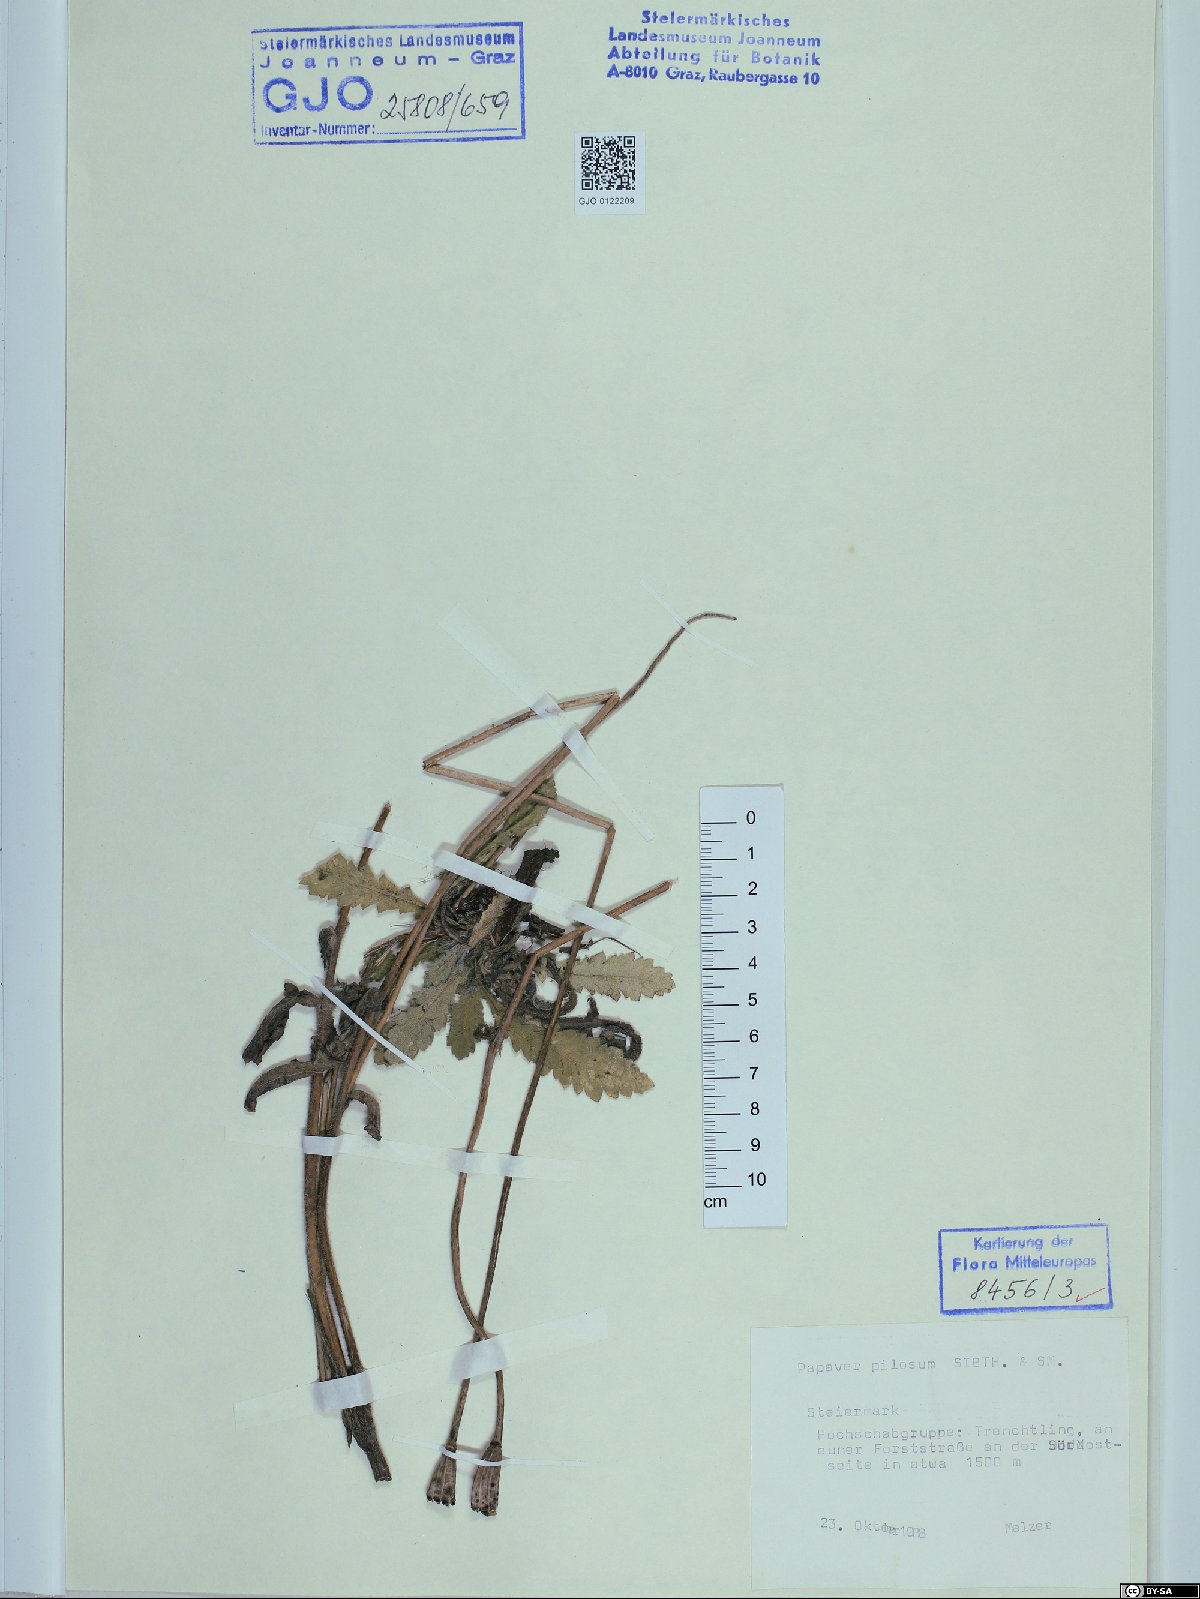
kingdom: Plantae
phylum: Tracheophyta
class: Magnoliopsida
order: Ranunculales
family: Papaveraceae
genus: Papaver
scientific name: Papaver pilosum
